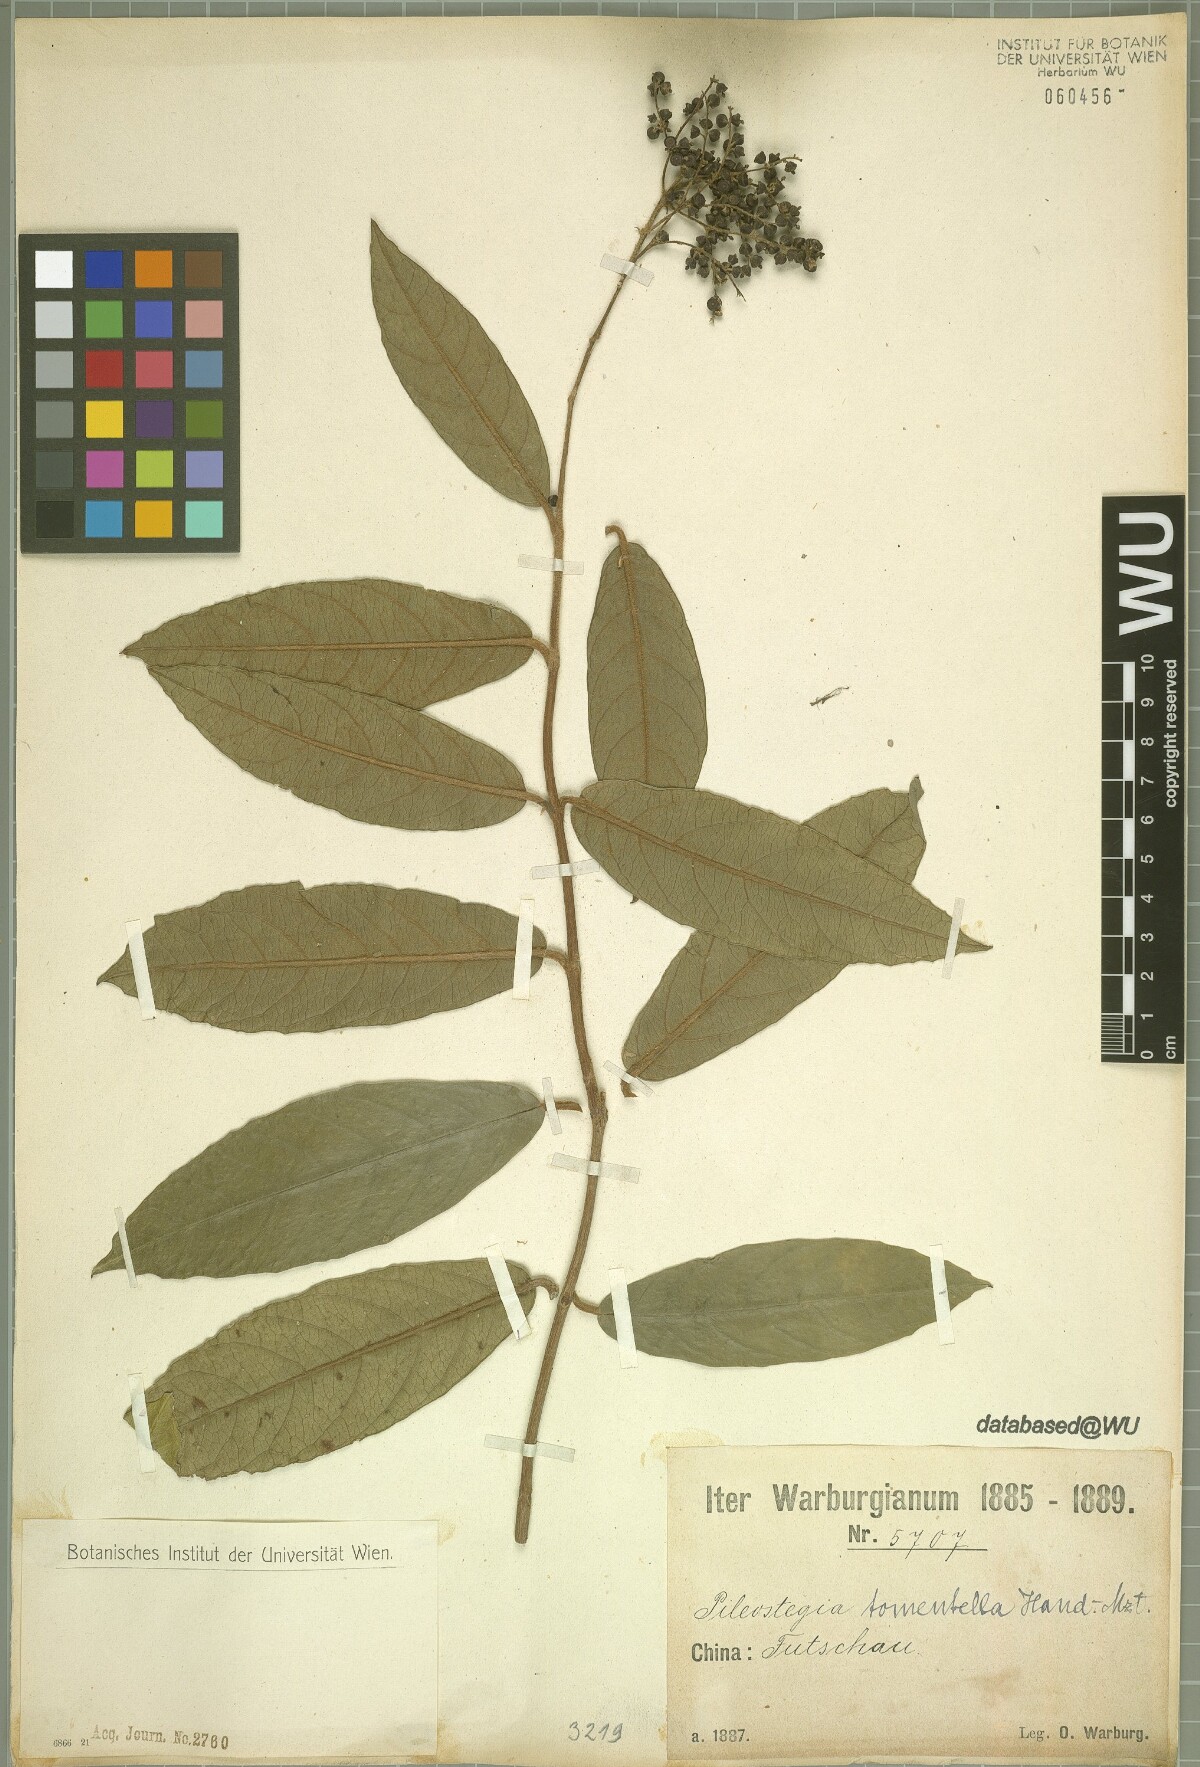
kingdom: Plantae
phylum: Tracheophyta
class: Magnoliopsida
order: Cornales
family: Hydrangeaceae
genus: Hydrangea
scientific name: Hydrangea tomentella
